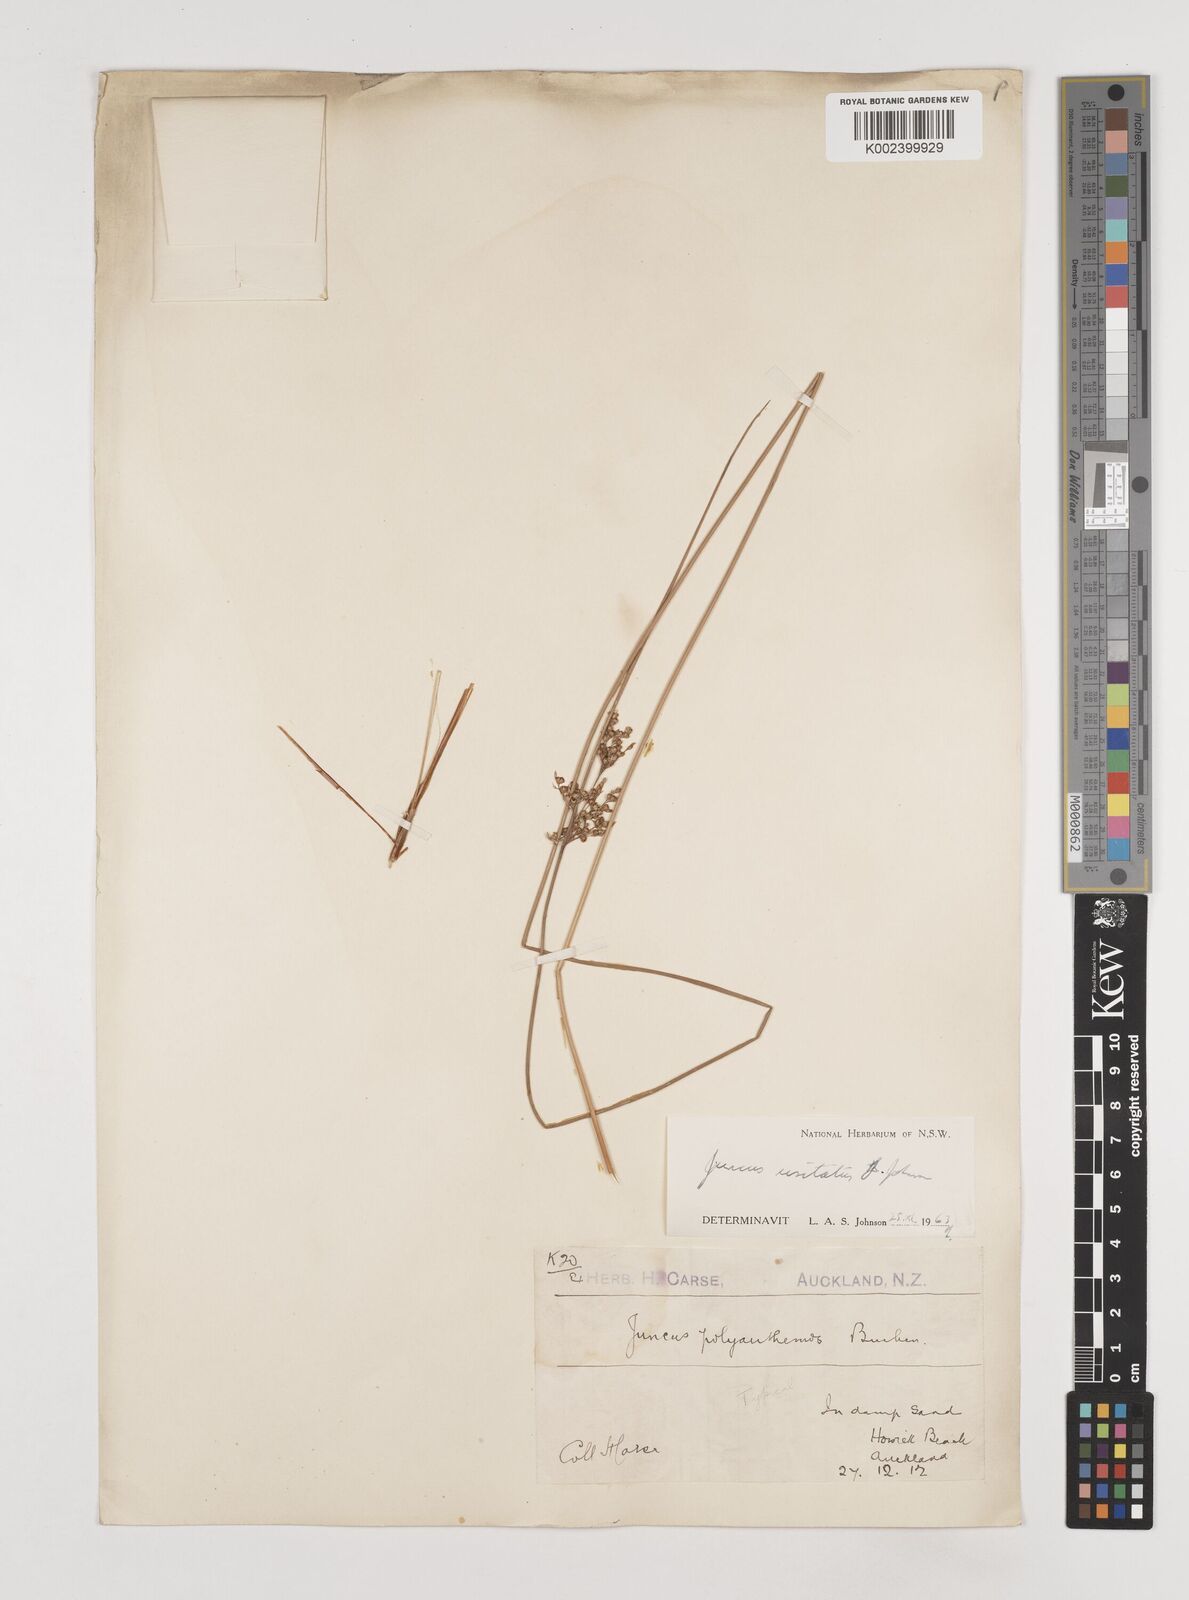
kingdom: Plantae
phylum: Tracheophyta
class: Liliopsida
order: Poales
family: Juncaceae
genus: Juncus
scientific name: Juncus usitatus
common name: Rush
